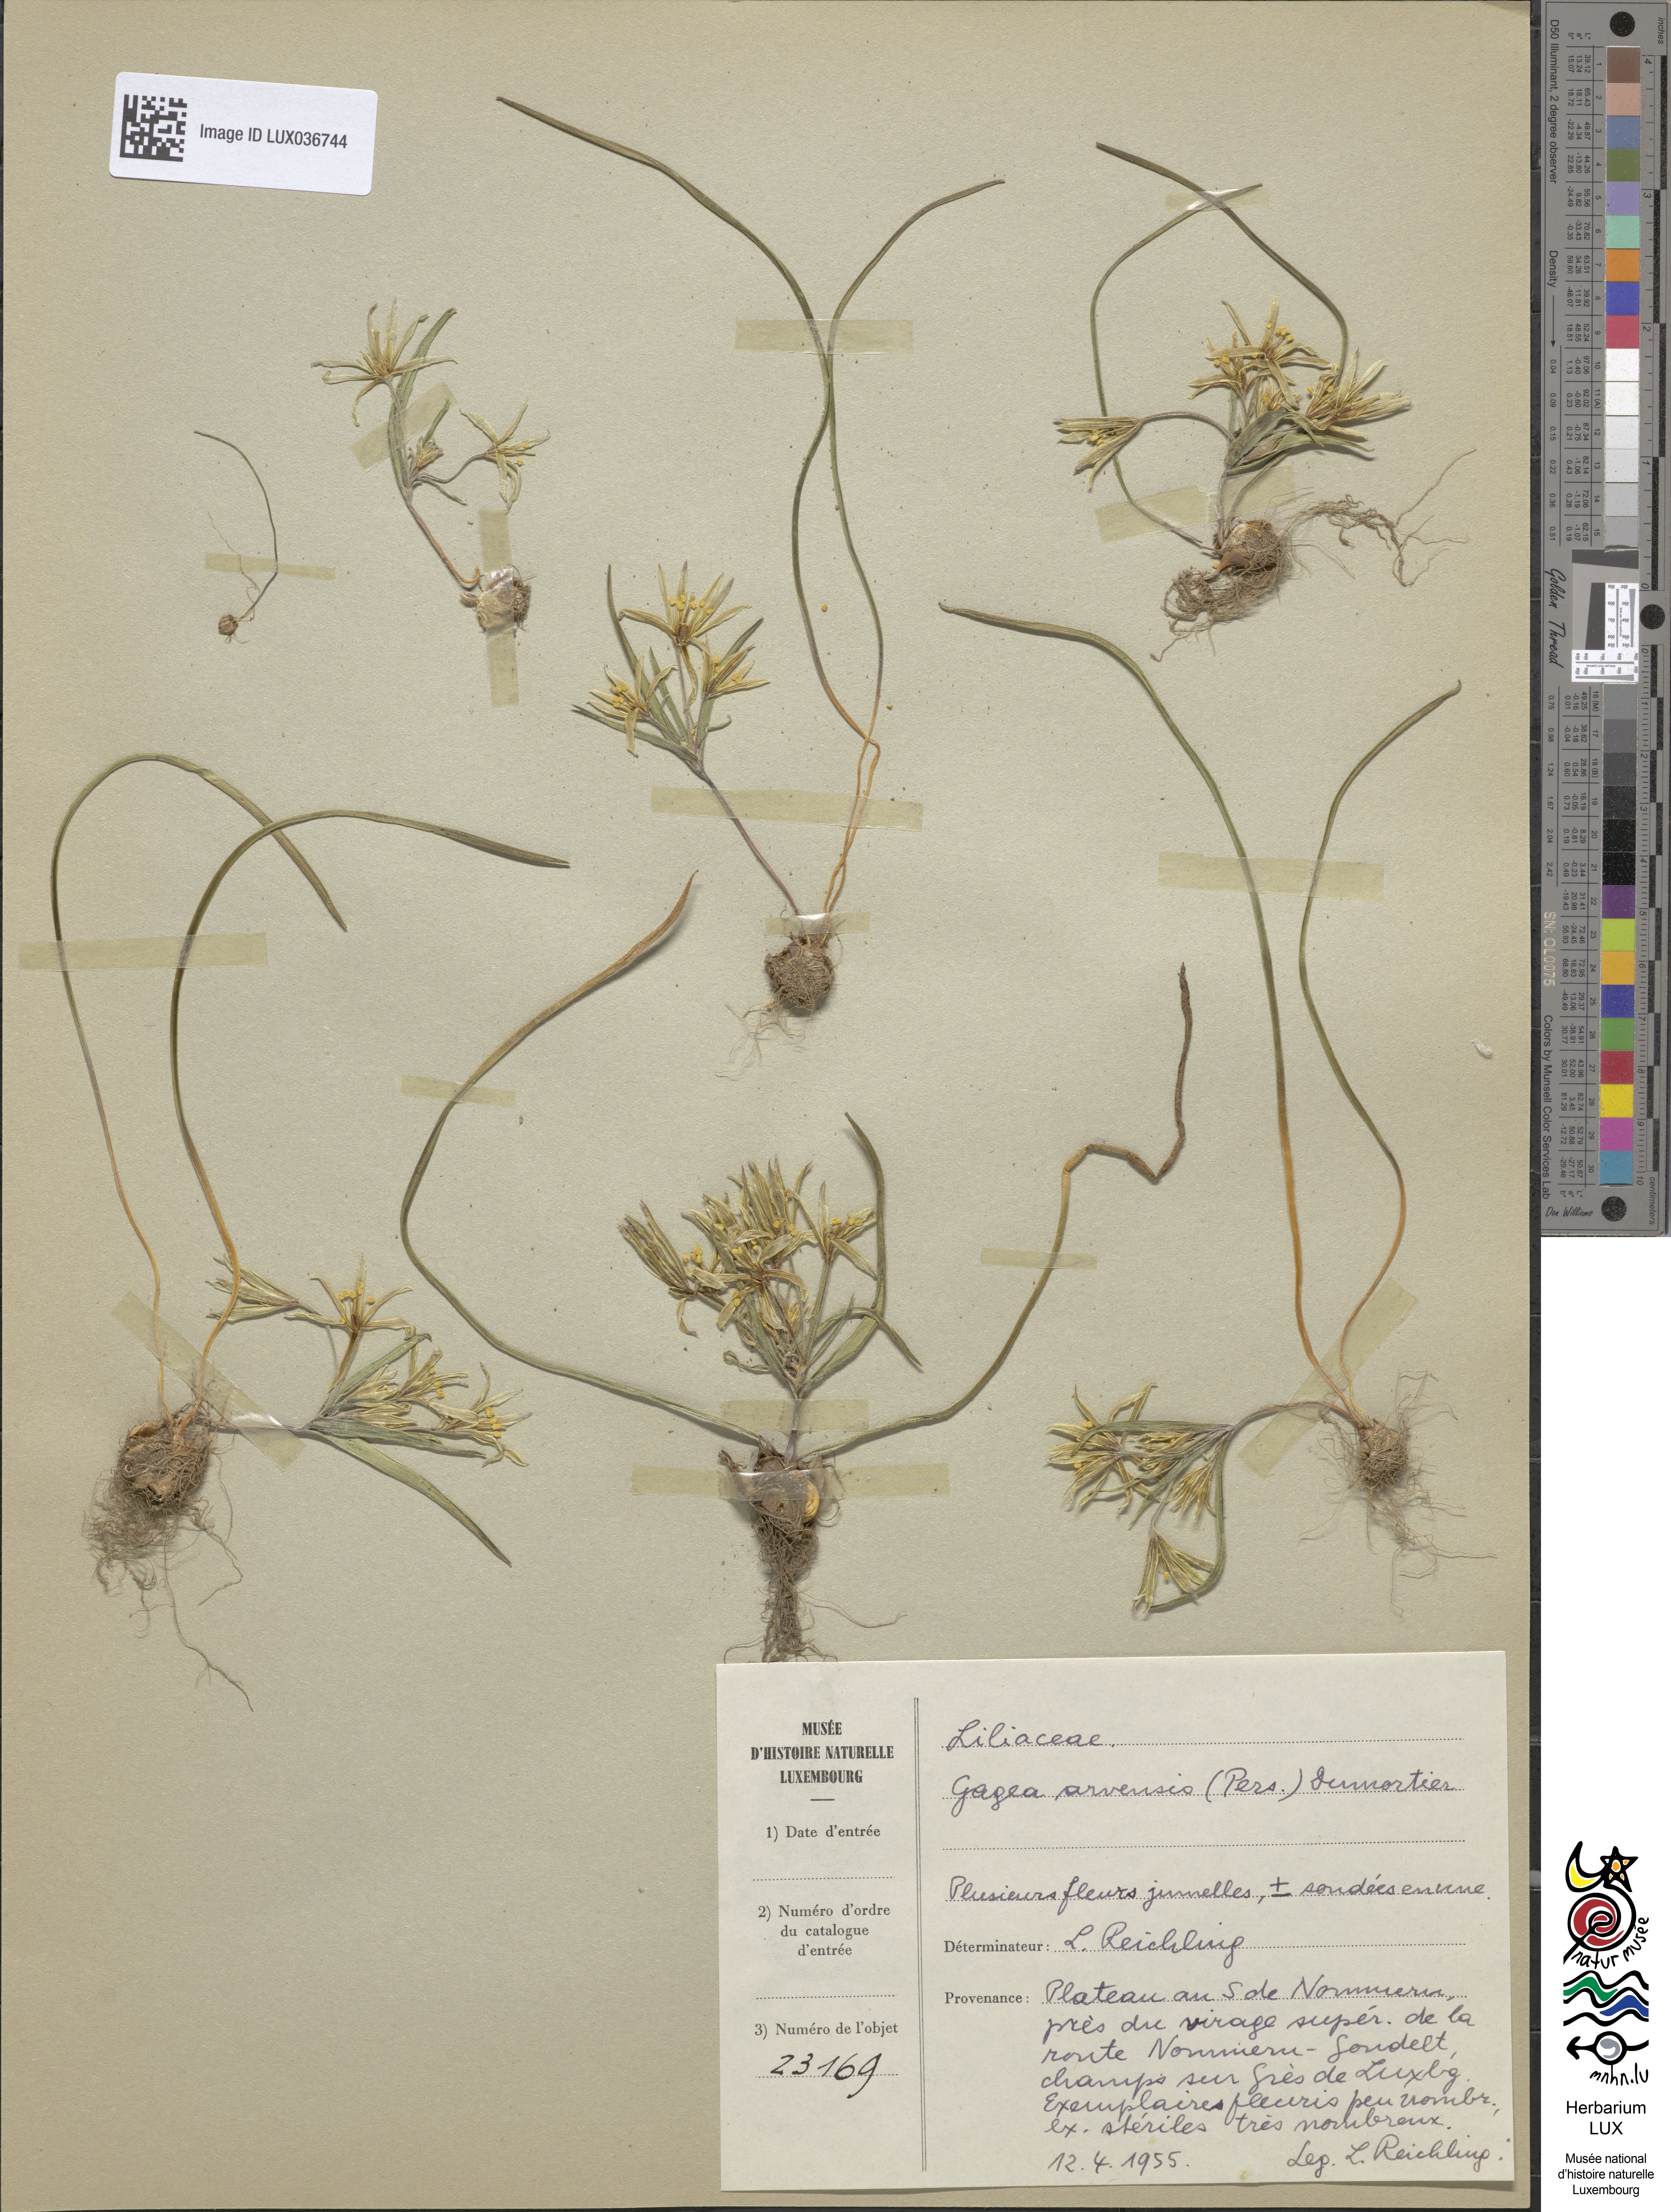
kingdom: Plantae
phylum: Tracheophyta
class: Liliopsida
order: Liliales
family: Liliaceae
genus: Gagea
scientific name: Gagea minima
